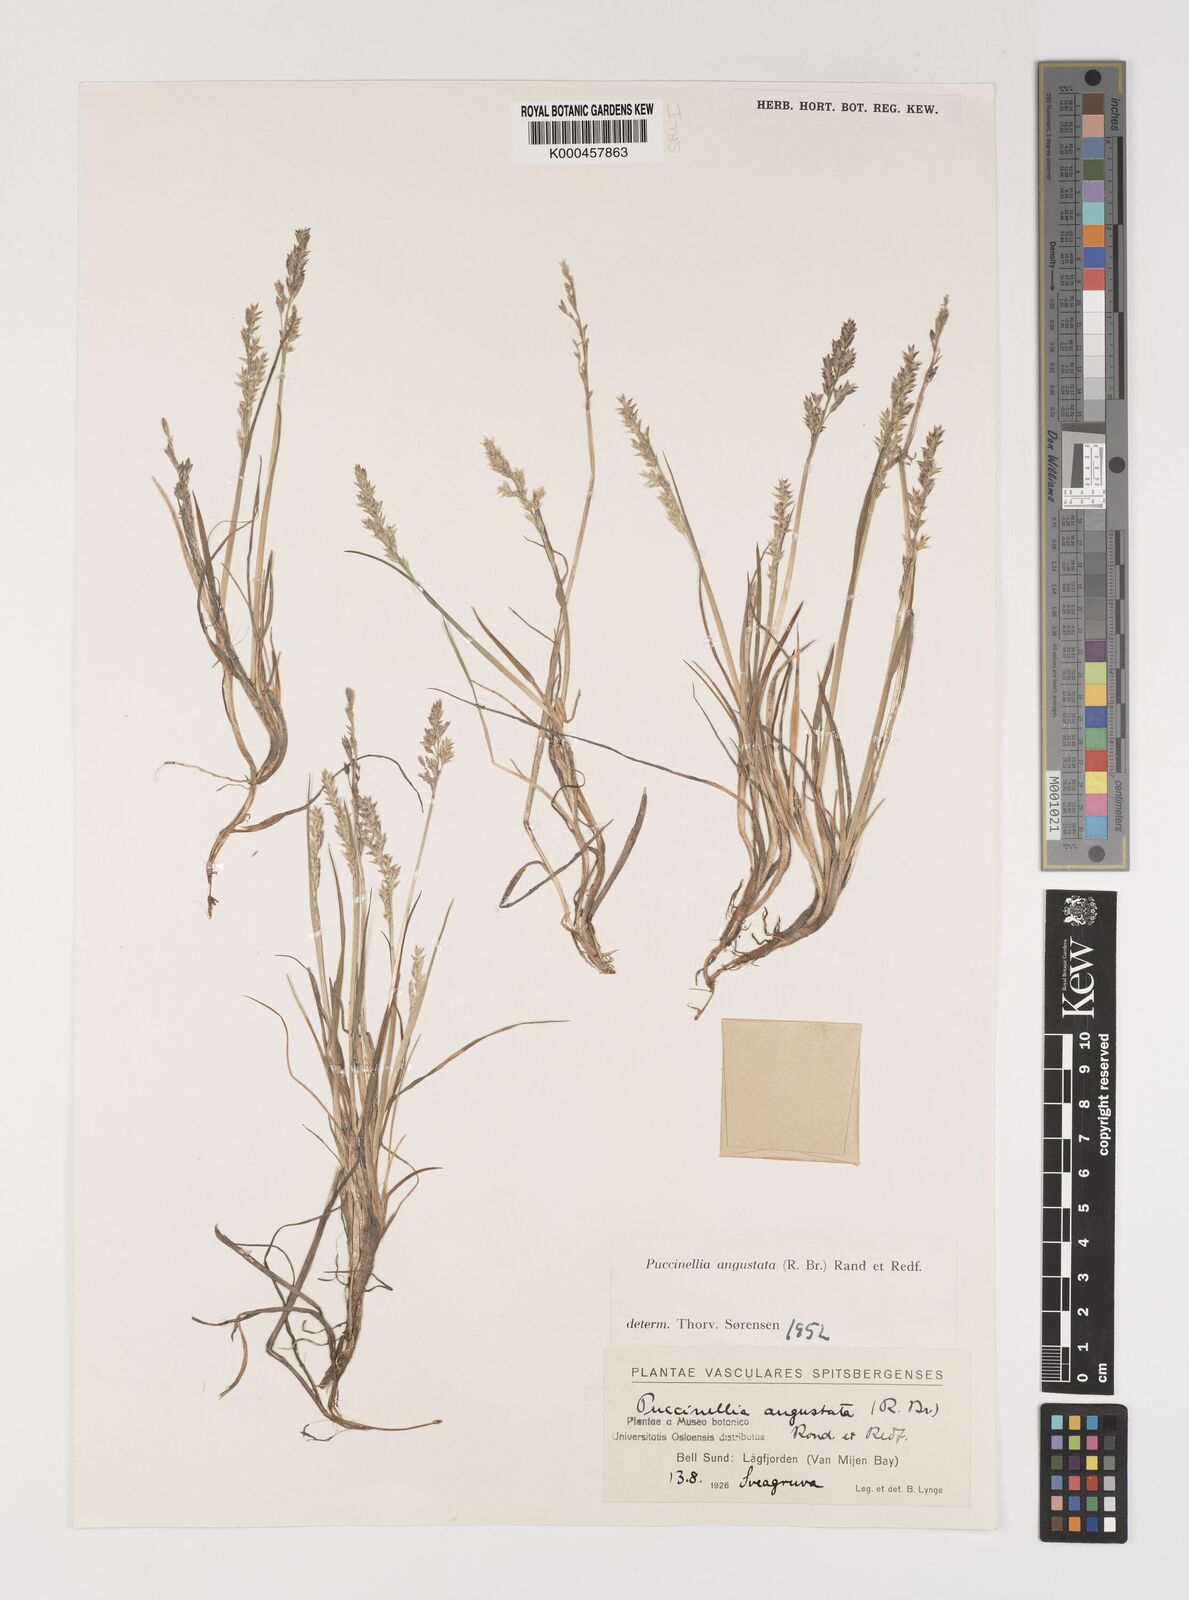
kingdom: Plantae
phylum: Tracheophyta
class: Liliopsida
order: Poales
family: Poaceae
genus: Puccinellia
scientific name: Puccinellia angustata
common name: Narrow alkaligrass
